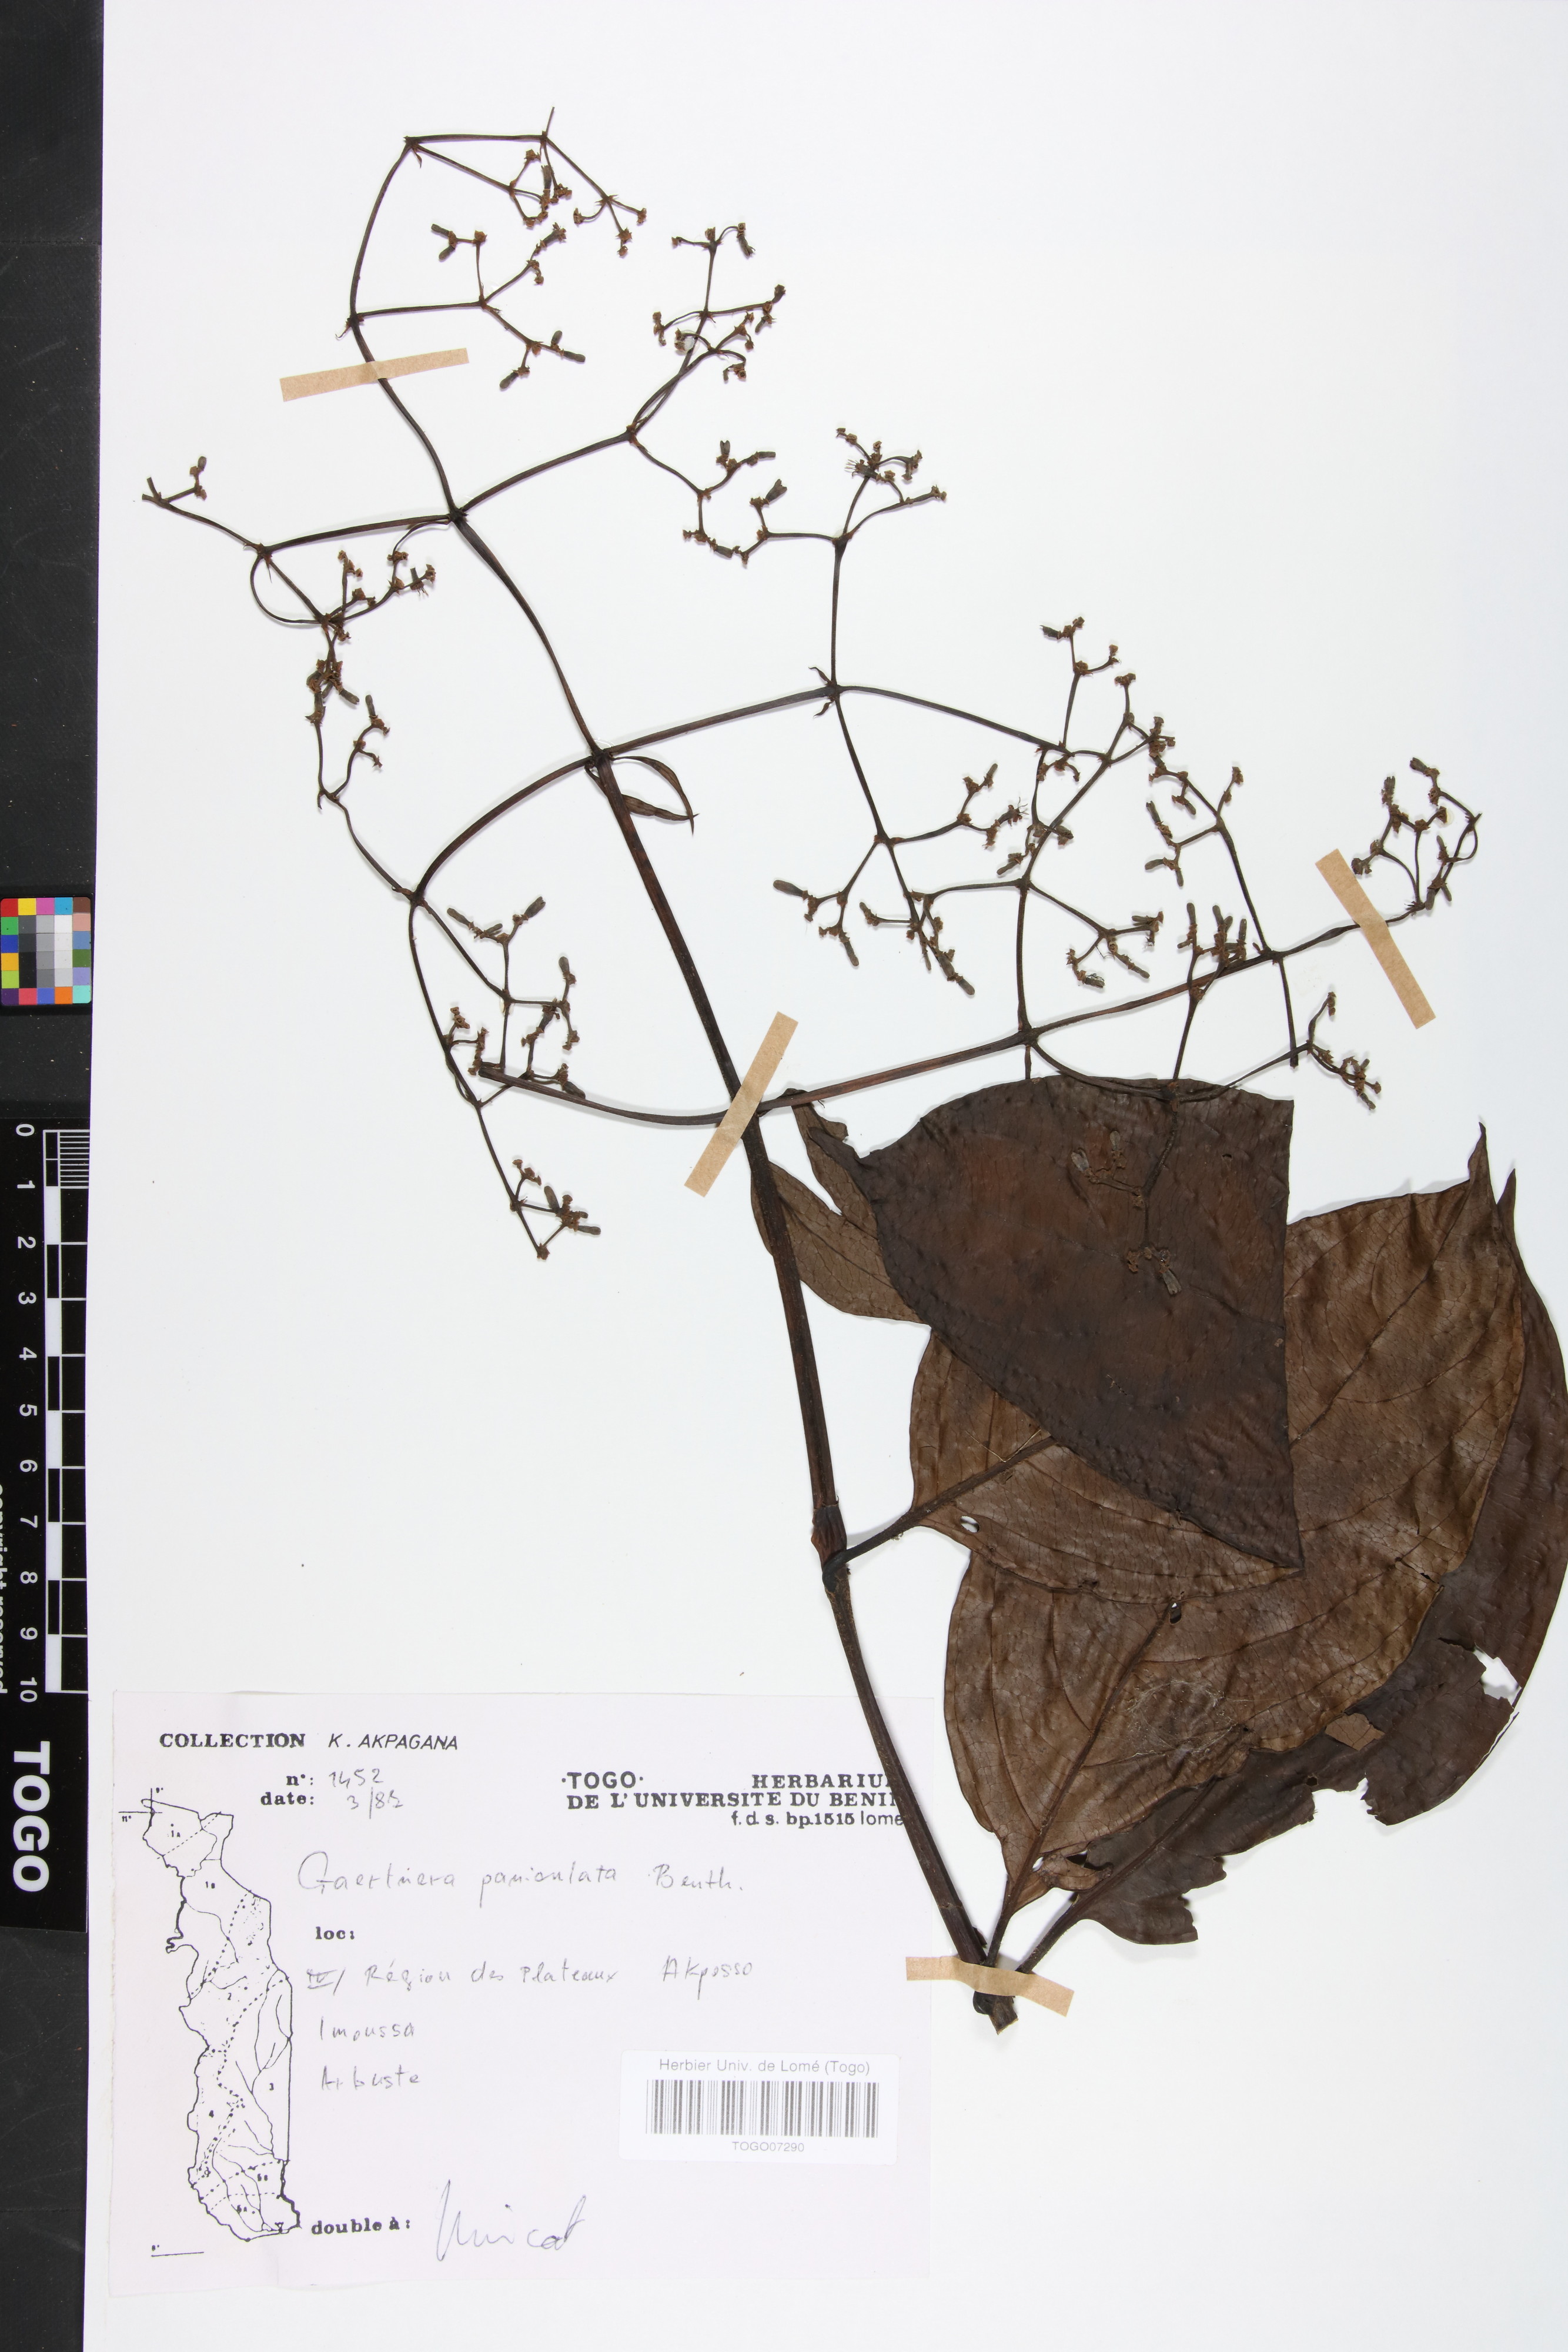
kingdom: Plantae
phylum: Tracheophyta
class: Magnoliopsida
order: Gentianales
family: Rubiaceae
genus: Gaertnera
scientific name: Gaertnera paniculata
